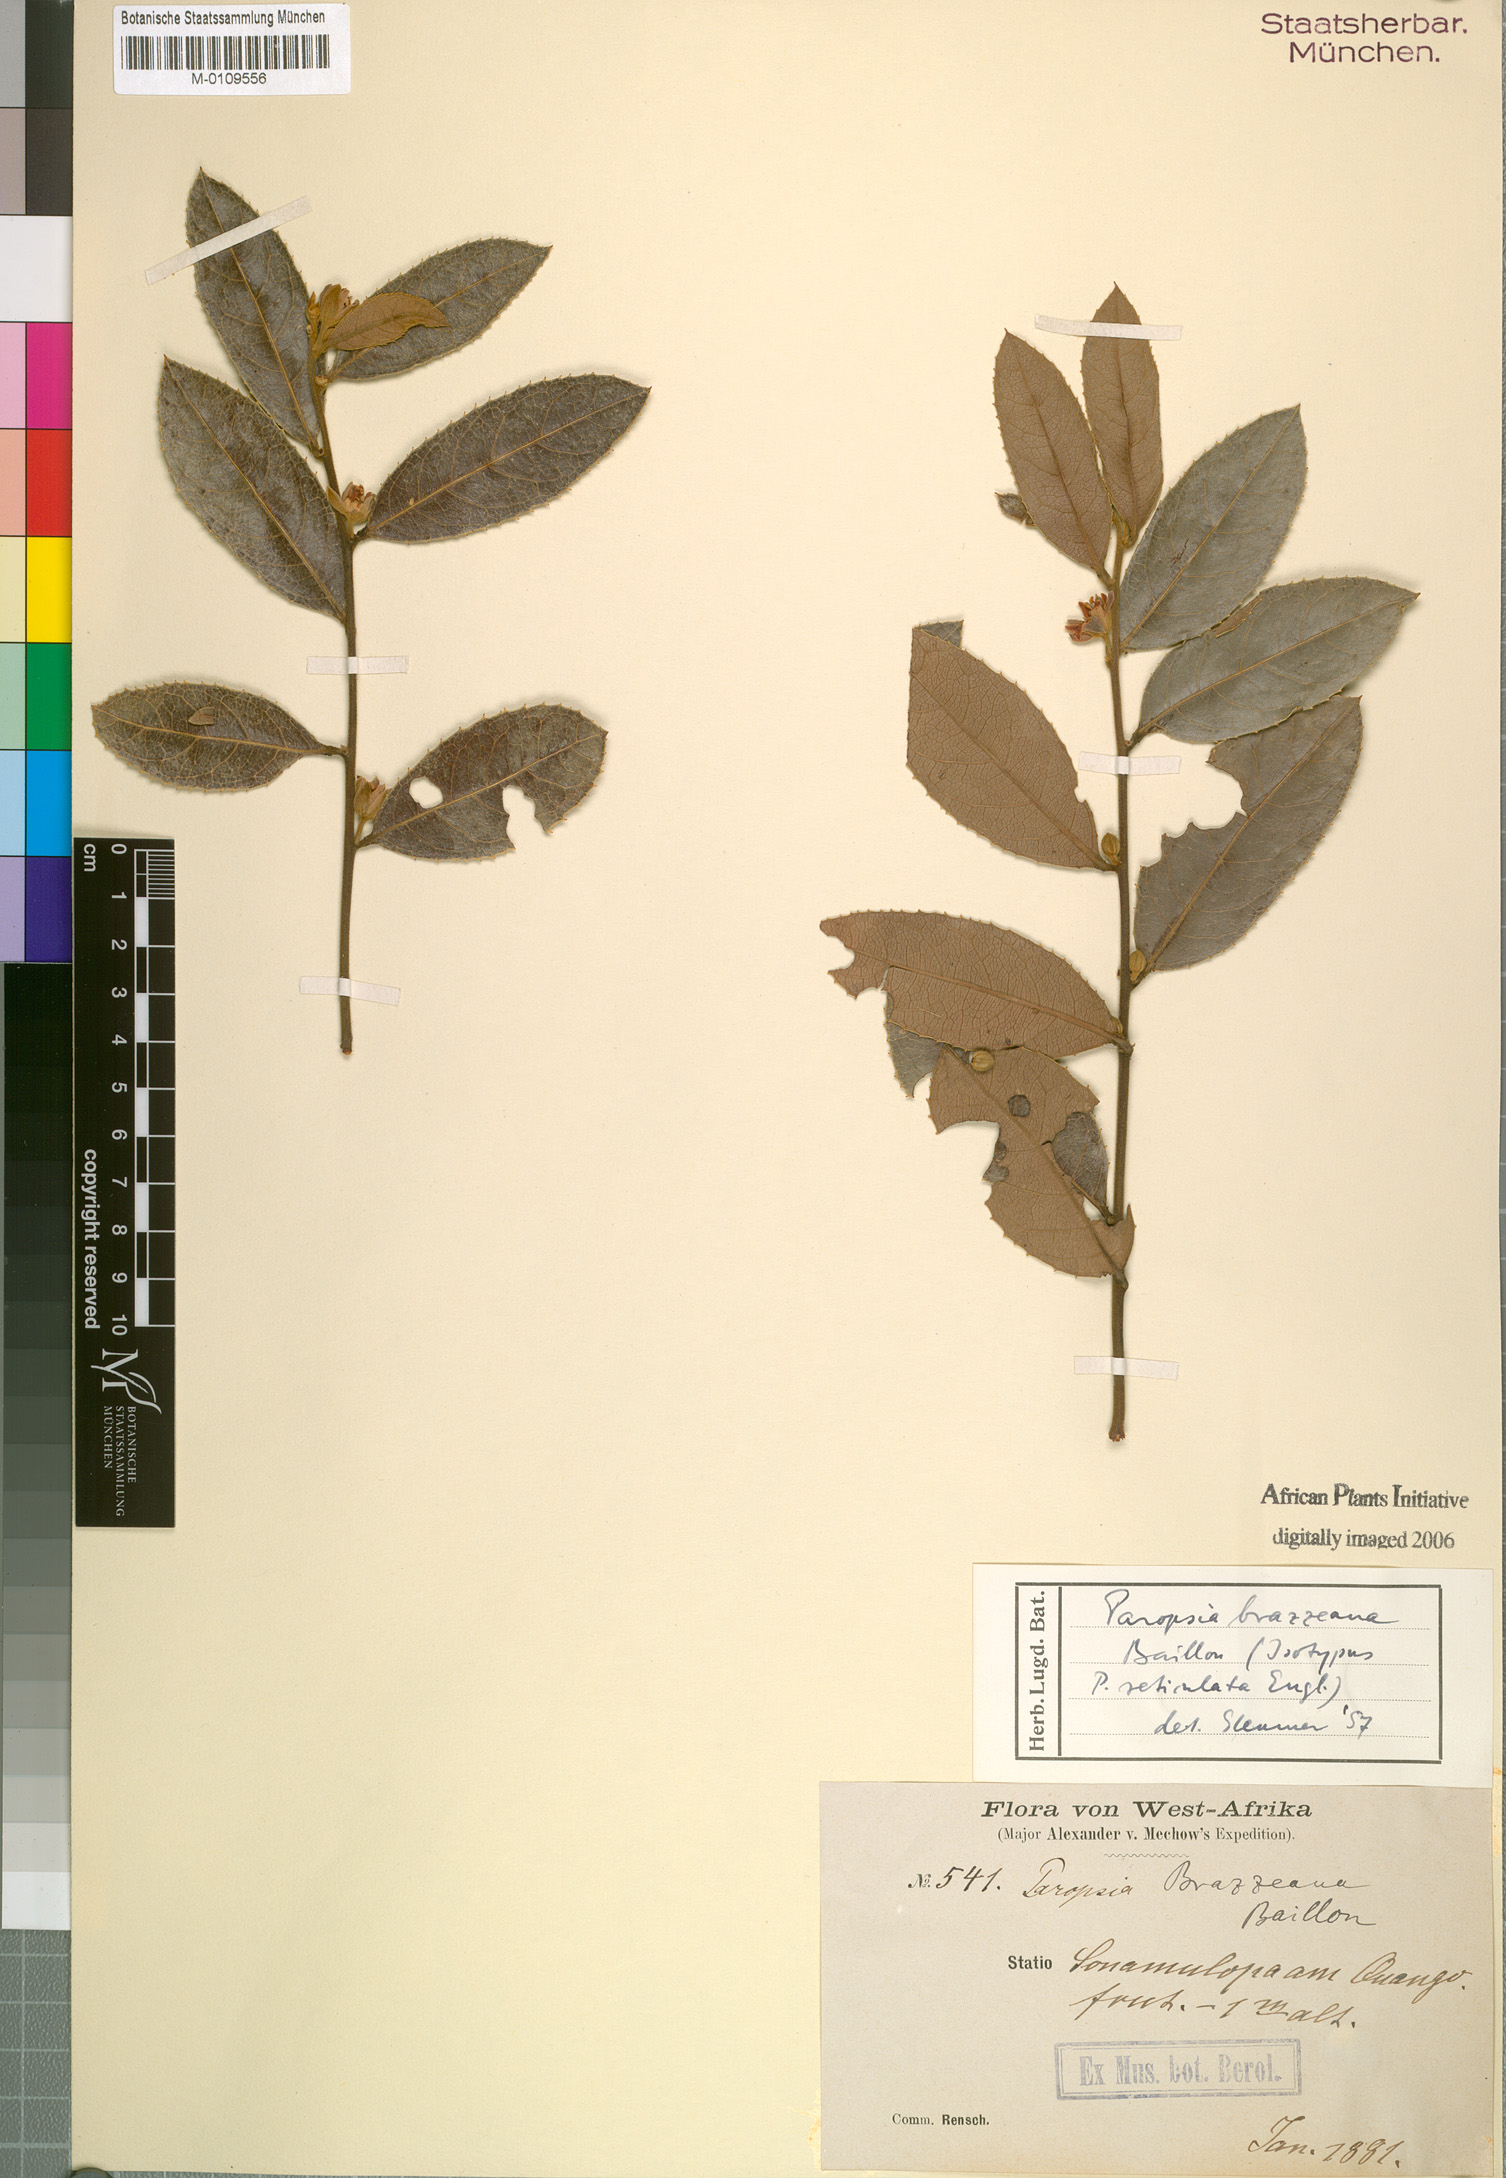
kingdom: Plantae
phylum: Tracheophyta
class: Magnoliopsida
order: Malpighiales
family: Passifloraceae
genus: Paropsia
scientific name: Paropsia brazzaeana
